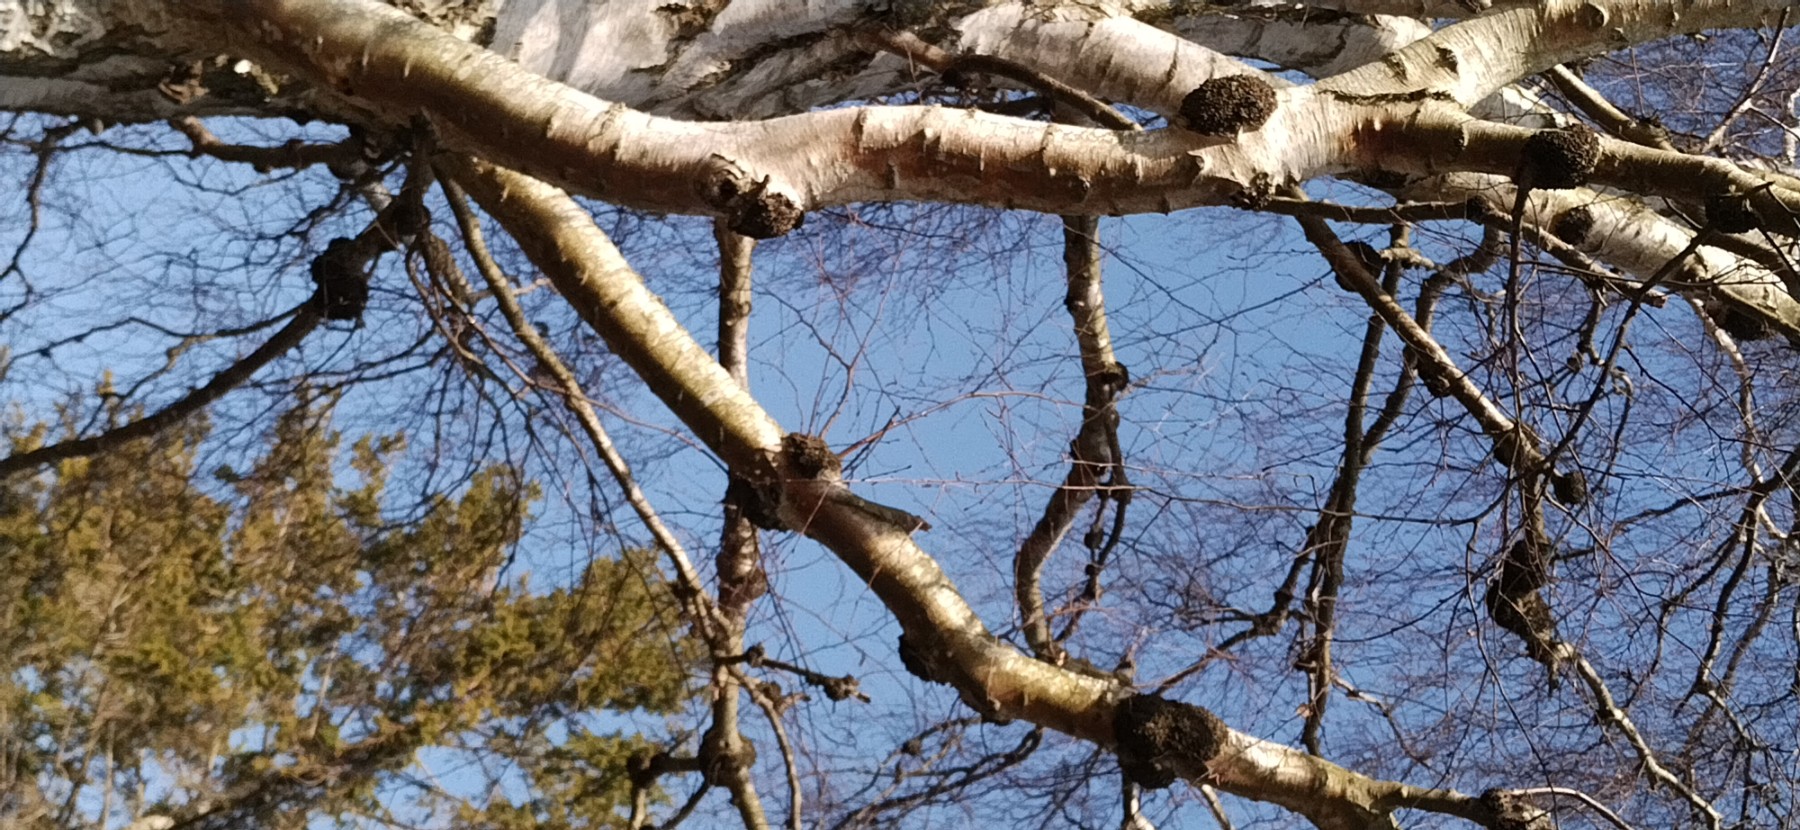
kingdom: Fungi
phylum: Basidiomycota
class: Agaricomycetes
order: Hymenochaetales
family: Hymenochaetaceae
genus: Inonotus
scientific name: Inonotus obliquus
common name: birke-spejlporesvamp
